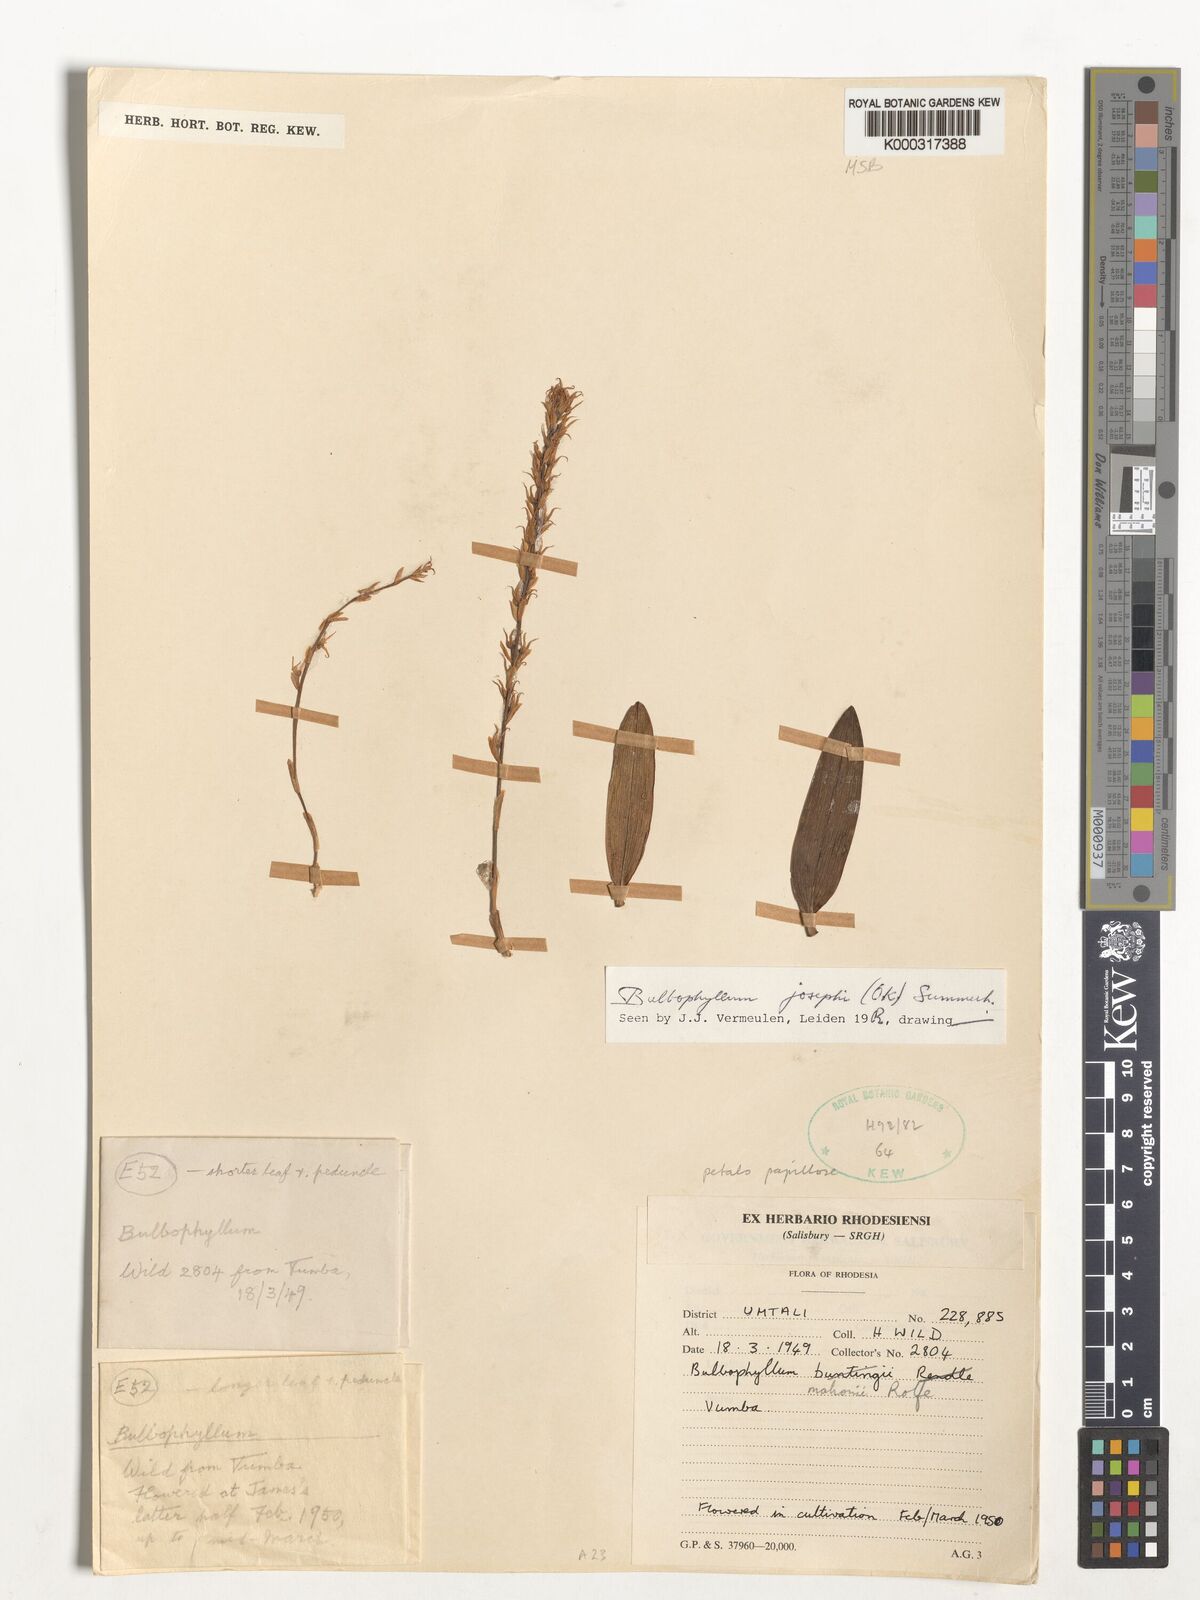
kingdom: Plantae
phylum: Tracheophyta
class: Liliopsida
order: Asparagales
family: Orchidaceae
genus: Bulbophyllum
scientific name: Bulbophyllum josephi
